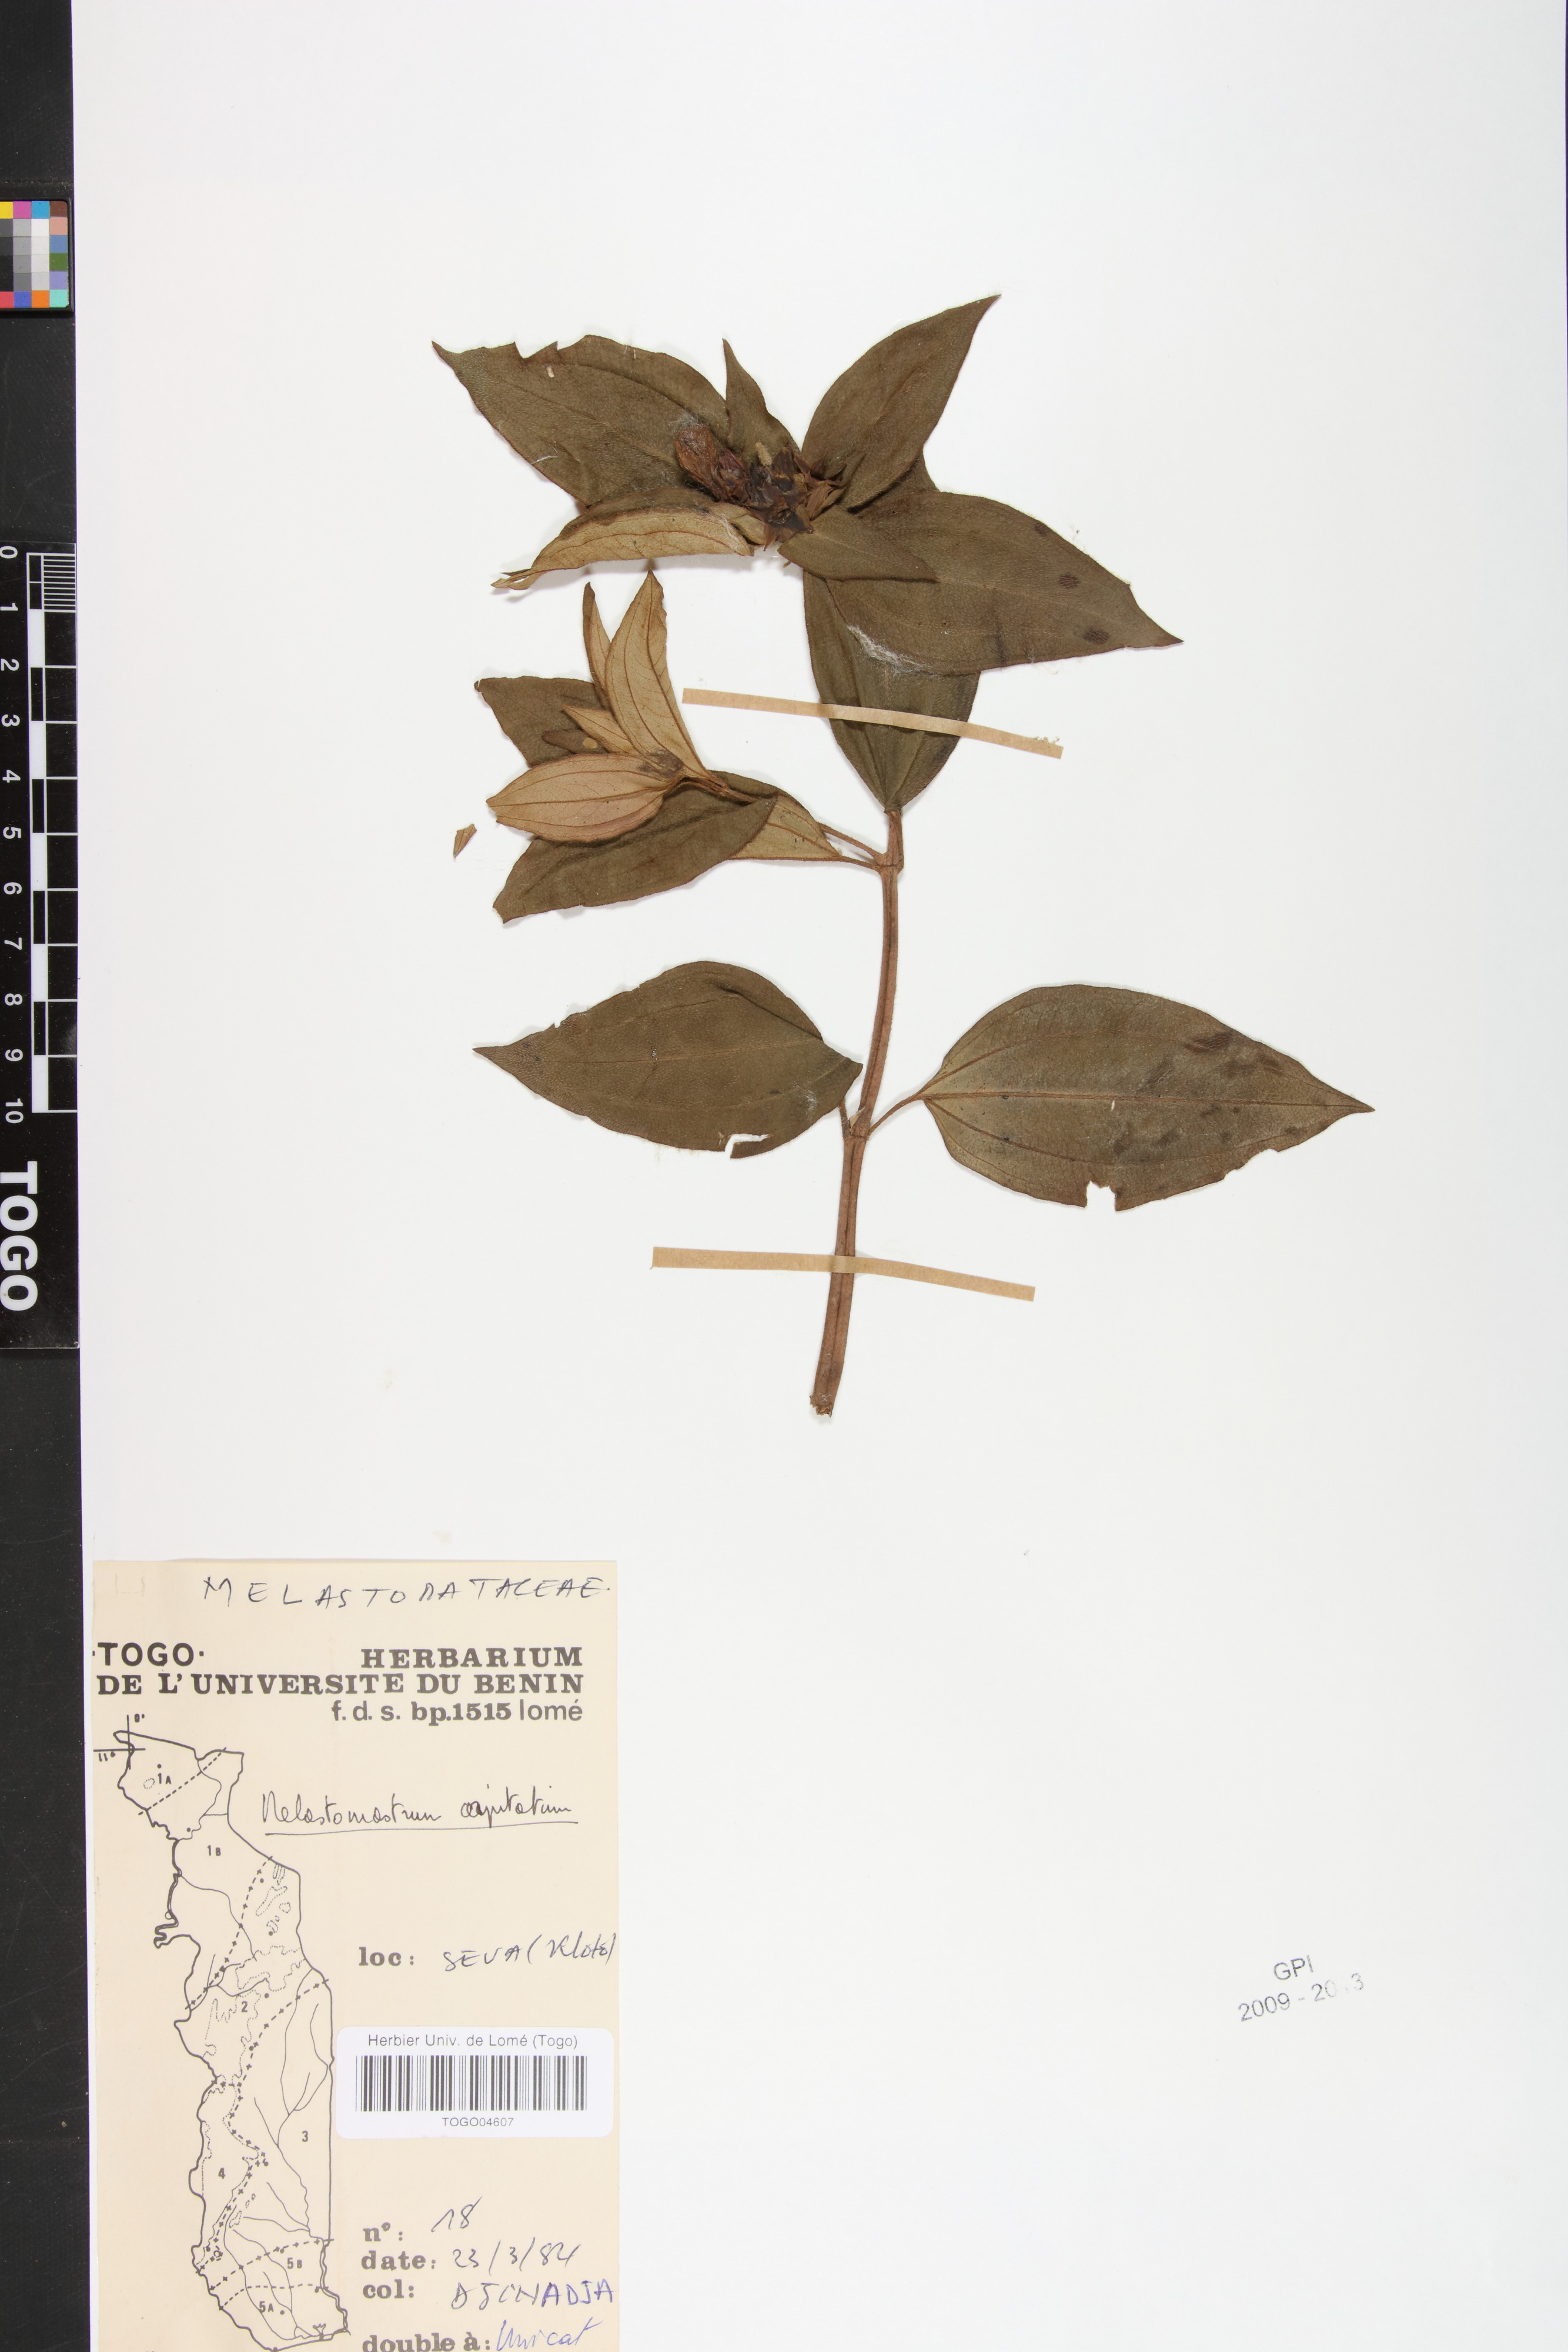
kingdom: Plantae
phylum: Tracheophyta
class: Magnoliopsida
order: Myrtales
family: Melastomataceae
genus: Melastomastrum
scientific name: Melastomastrum capitatum
